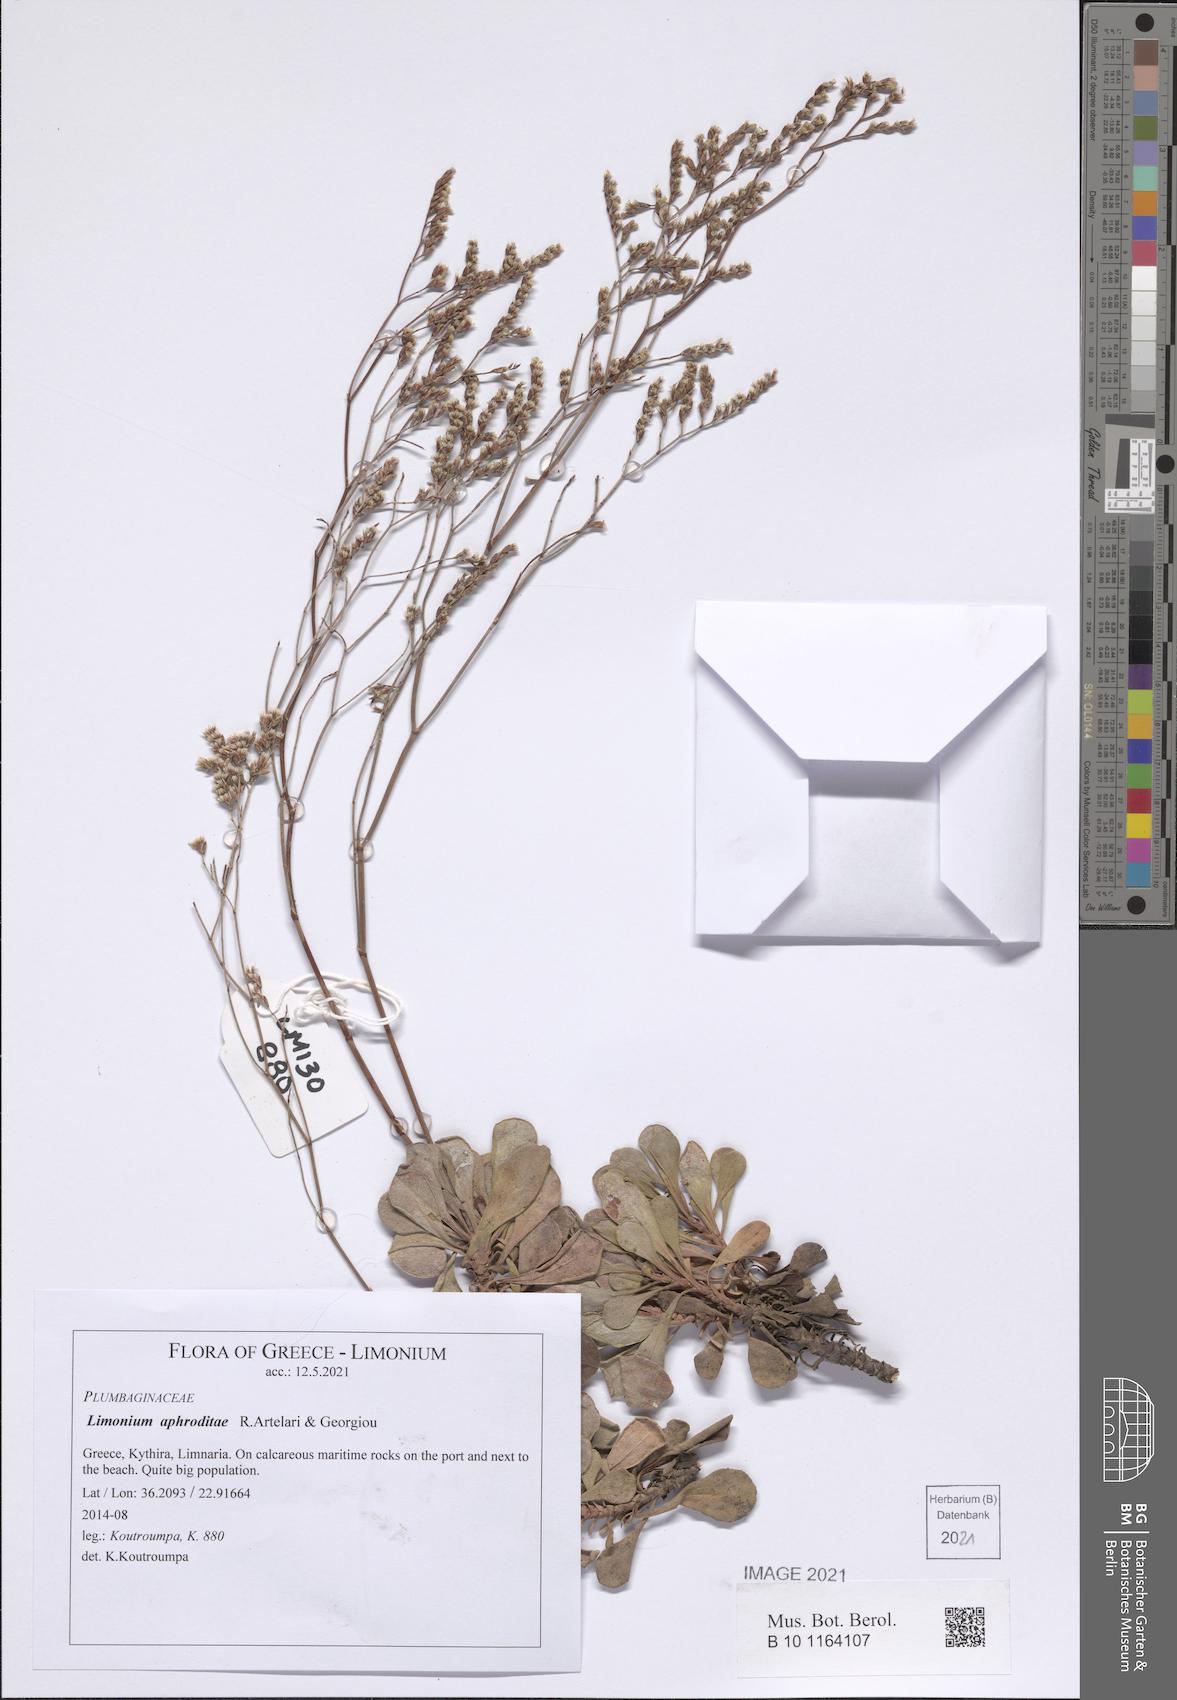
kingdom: Plantae
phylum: Tracheophyta
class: Magnoliopsida
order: Caryophyllales
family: Plumbaginaceae
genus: Limonium
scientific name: Limonium aphroditae
